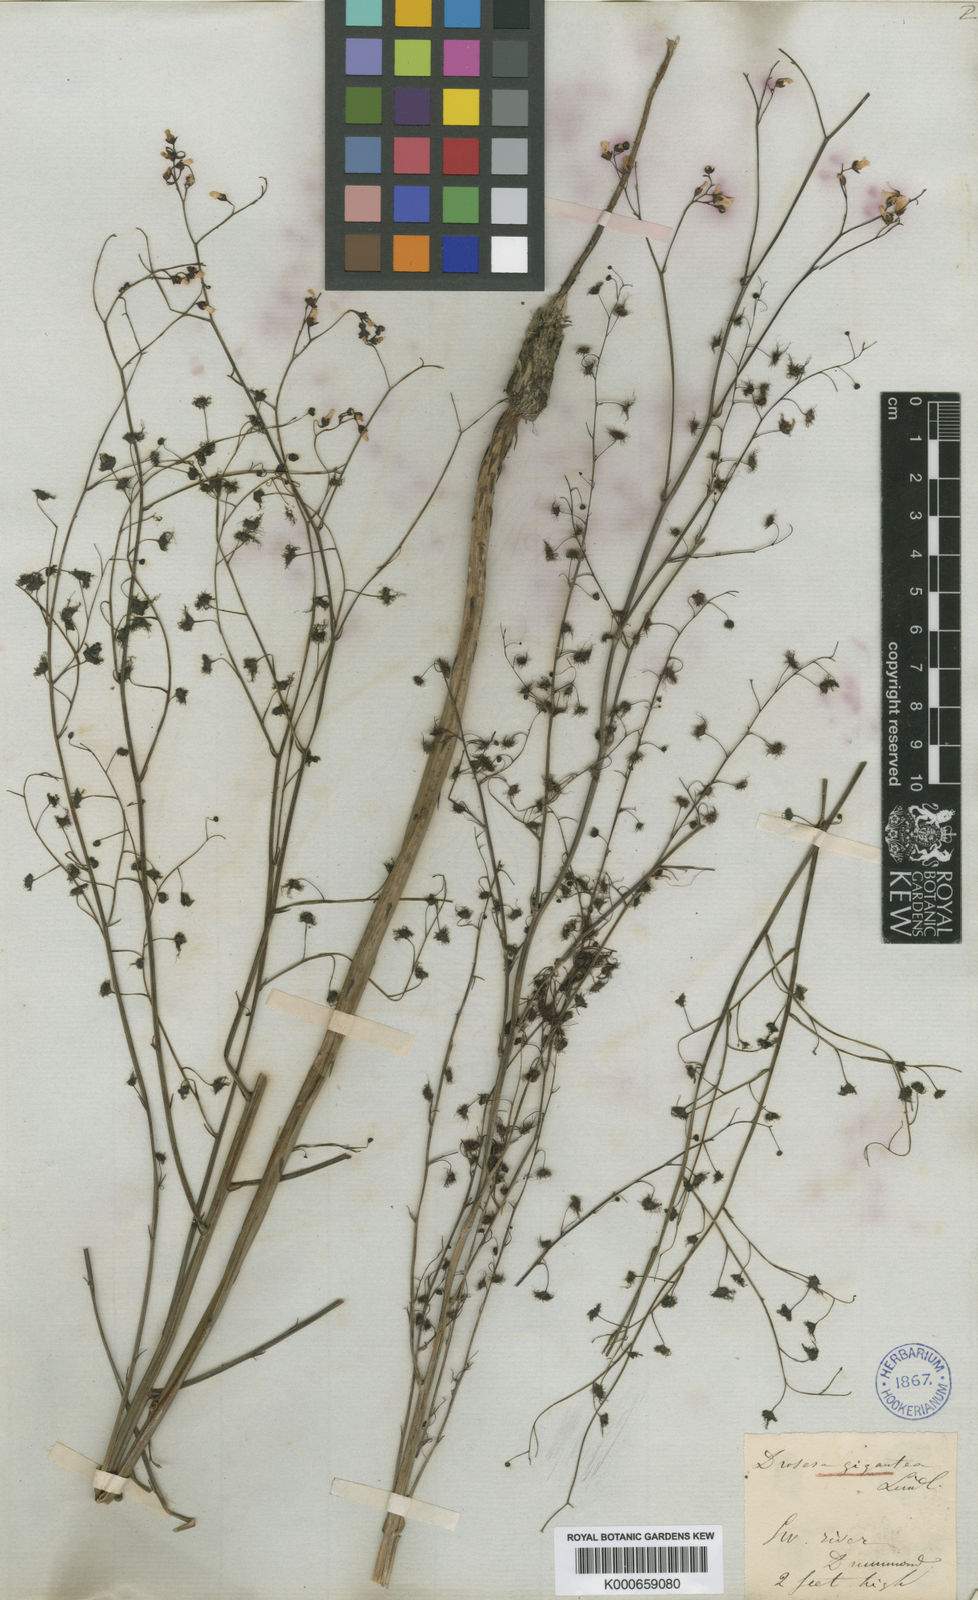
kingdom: Plantae
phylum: Tracheophyta
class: Magnoliopsida
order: Caryophyllales
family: Droseraceae
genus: Drosera
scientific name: Drosera gigantea
